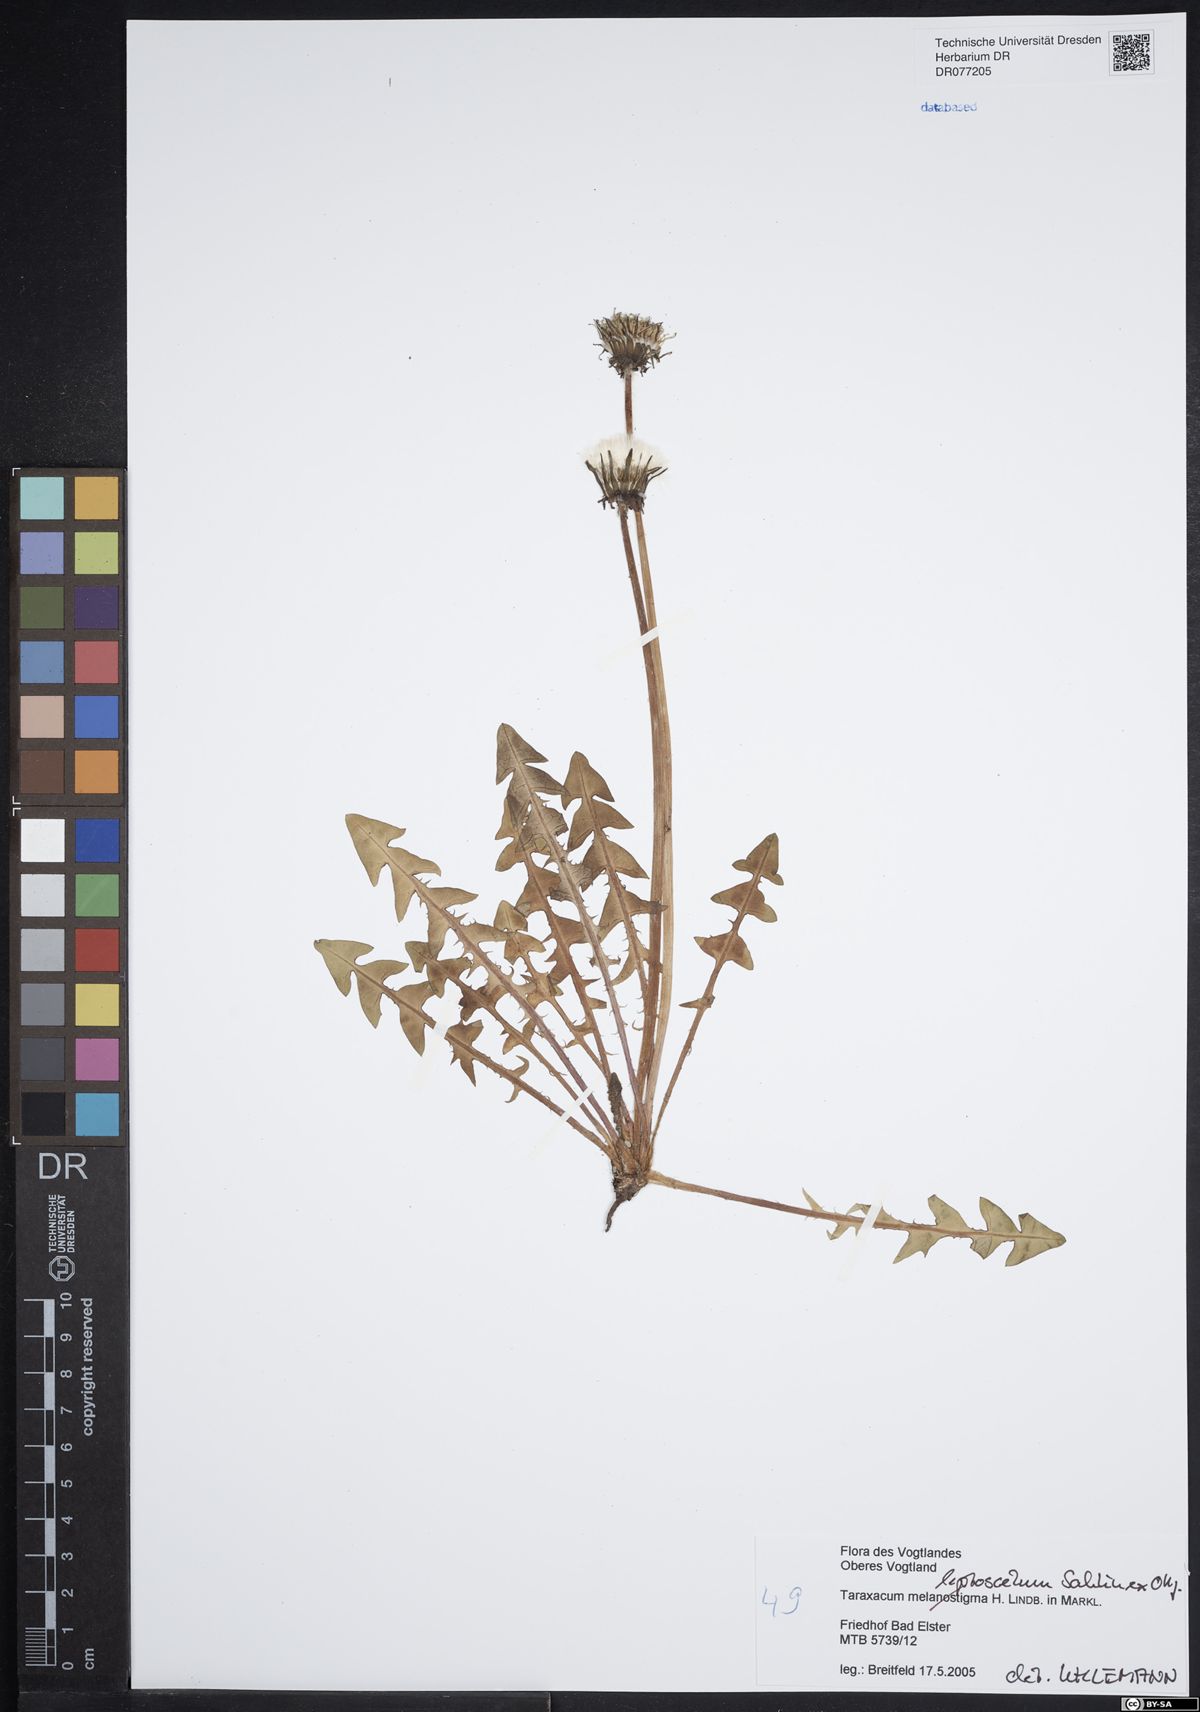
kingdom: Plantae
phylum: Tracheophyta
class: Magnoliopsida
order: Asterales
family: Asteraceae
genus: Taraxacum
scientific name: Taraxacum melanostigma
